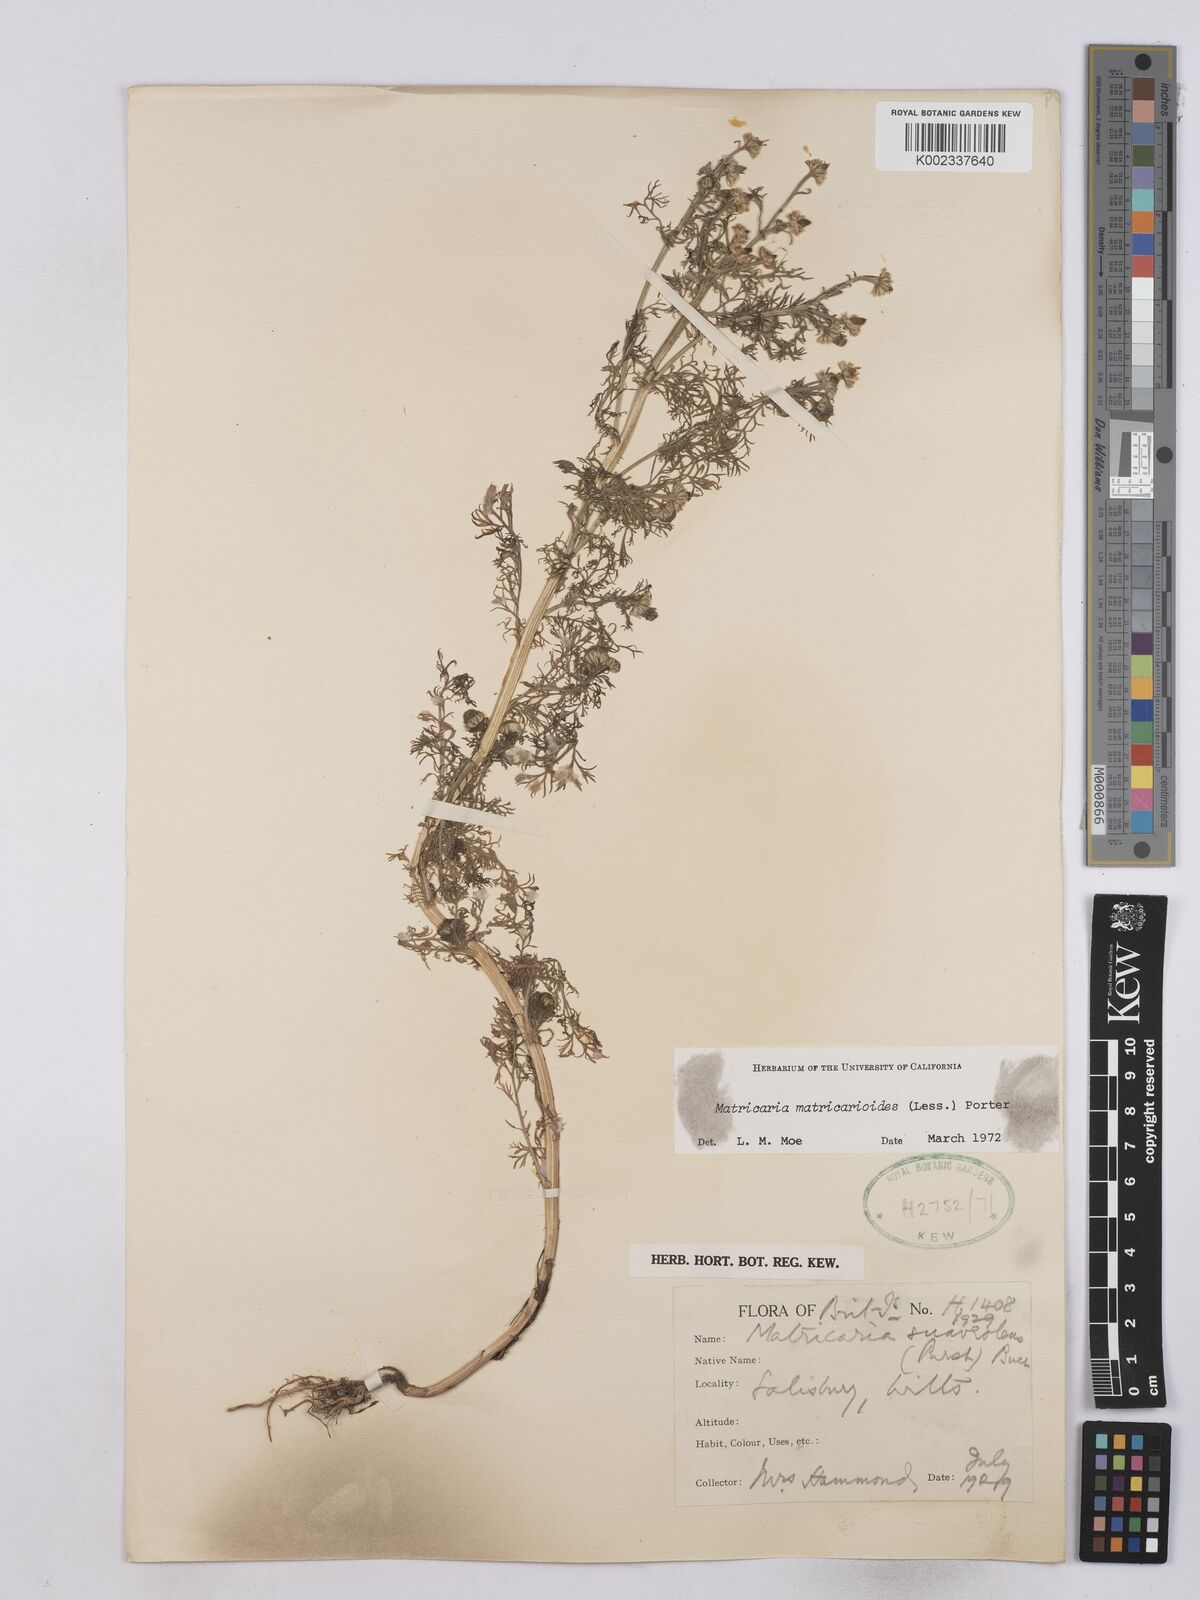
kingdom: Plantae
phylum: Tracheophyta
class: Magnoliopsida
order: Asterales
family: Asteraceae
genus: Matricaria
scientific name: Matricaria discoidea
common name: Disc mayweed
